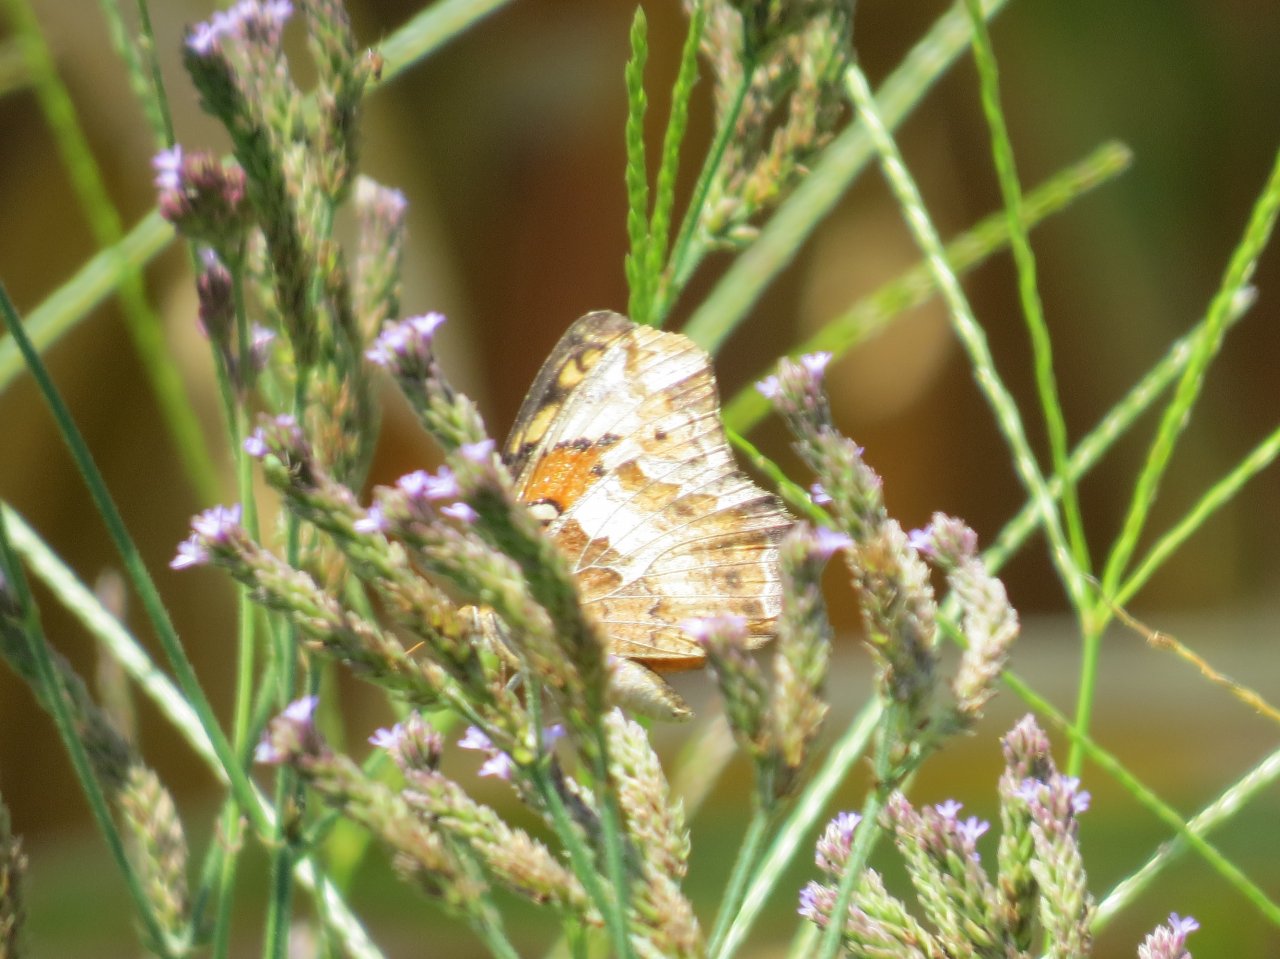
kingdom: Animalia
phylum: Arthropoda
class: Insecta
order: Lepidoptera
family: Nymphalidae
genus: Euptoieta
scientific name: Euptoieta claudia
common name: Variegated Fritillary
